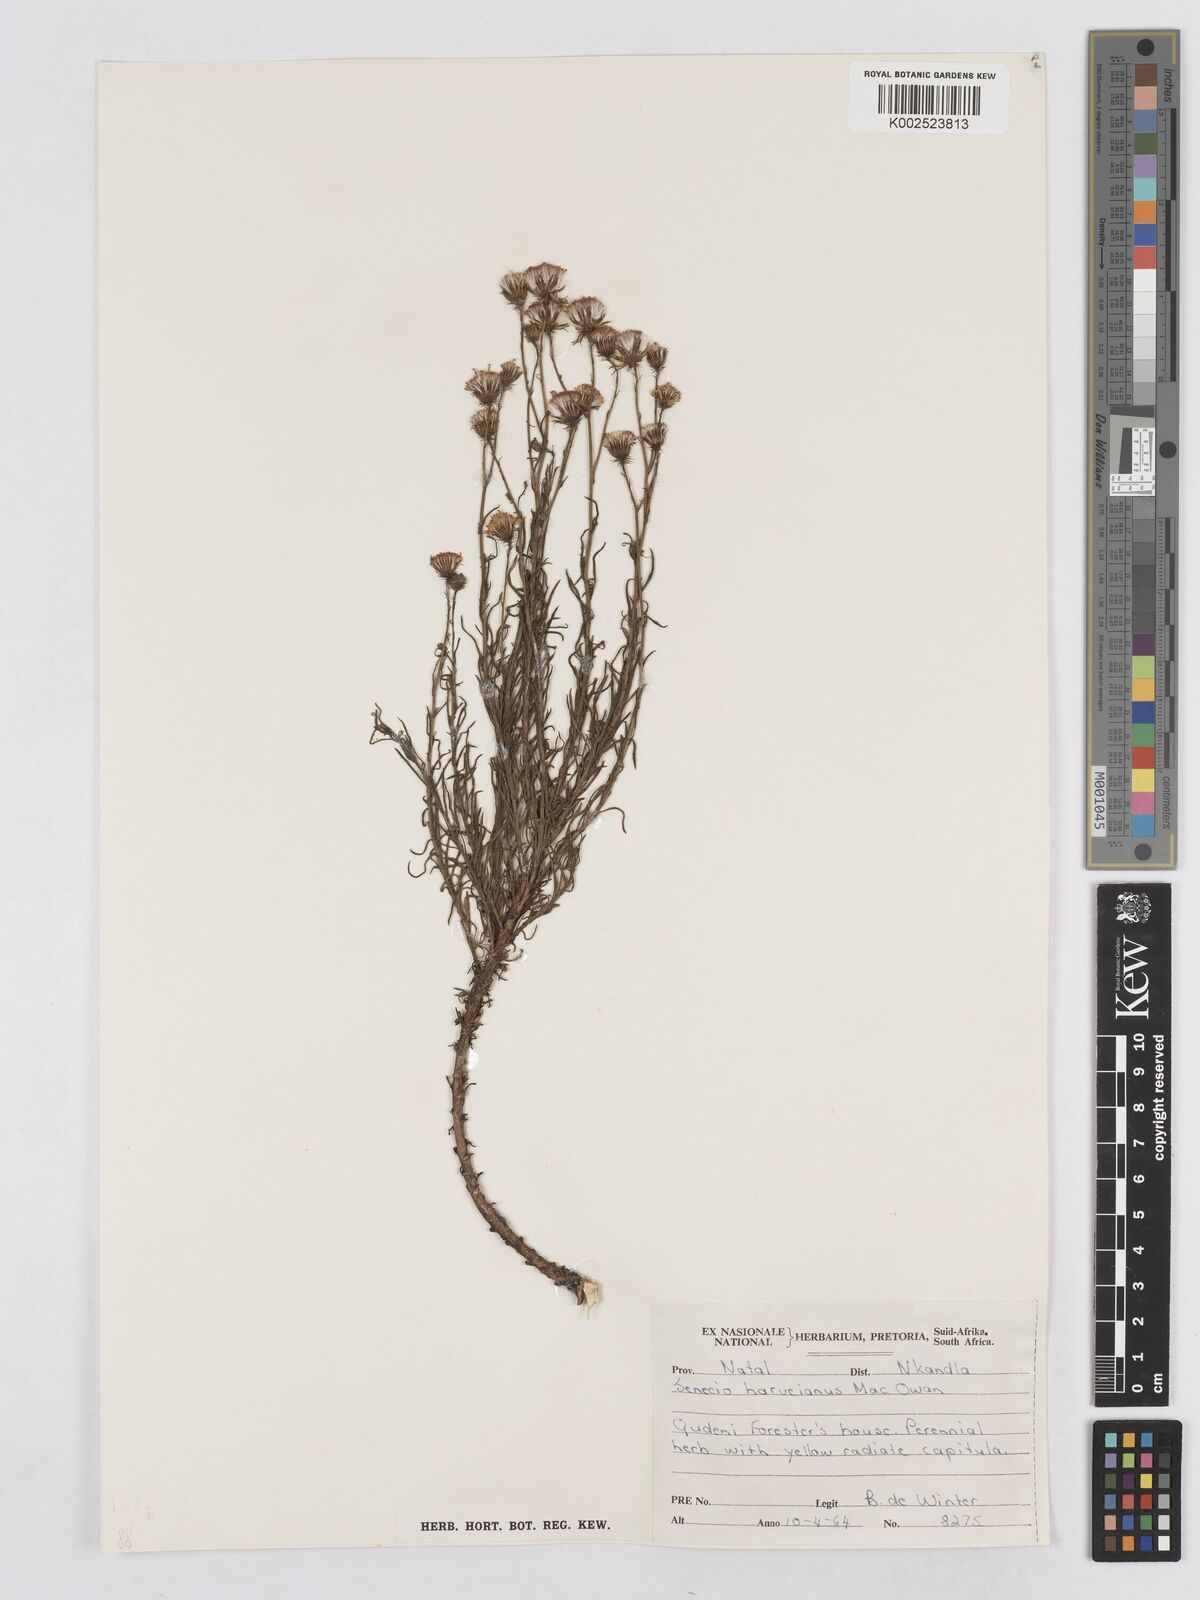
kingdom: Plantae
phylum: Tracheophyta
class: Magnoliopsida
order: Asterales
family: Asteraceae
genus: Senecio
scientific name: Senecio harveyanus
